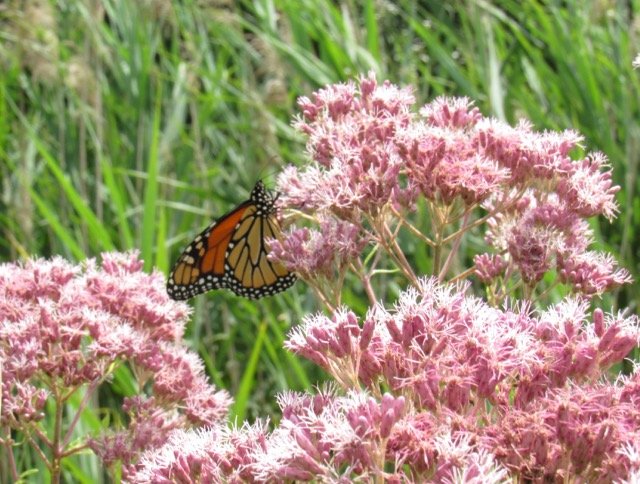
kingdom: Animalia
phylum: Arthropoda
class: Insecta
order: Lepidoptera
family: Nymphalidae
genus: Danaus
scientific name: Danaus plexippus
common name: Monarch
